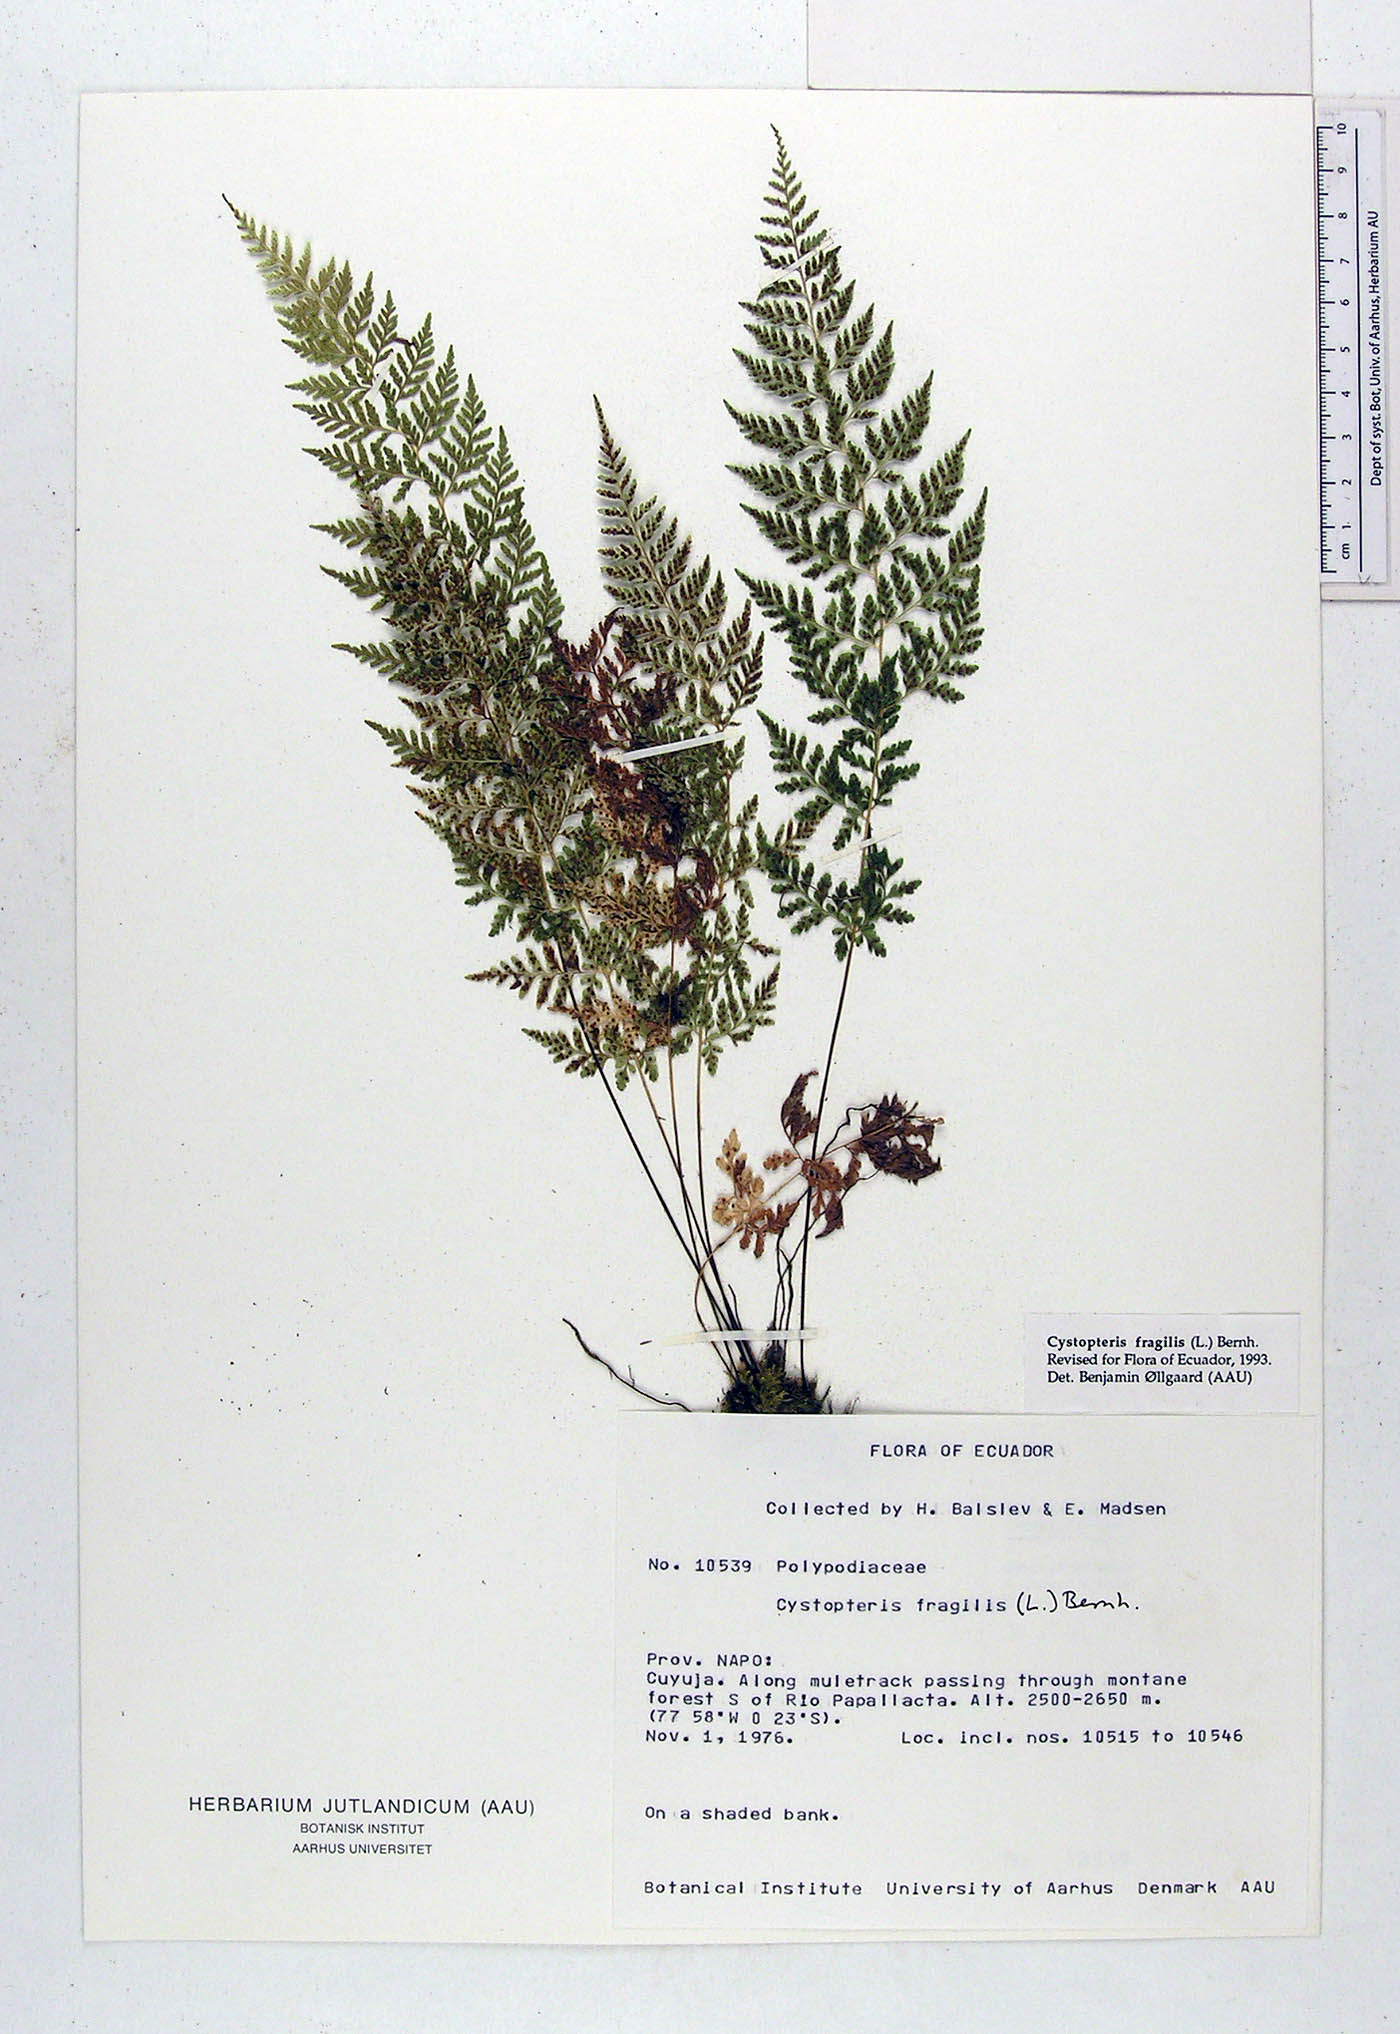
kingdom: Plantae
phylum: Tracheophyta
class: Polypodiopsida
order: Polypodiales
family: Cystopteridaceae
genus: Cystopteris
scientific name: Cystopteris fragilis
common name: Brittle bladder fern
